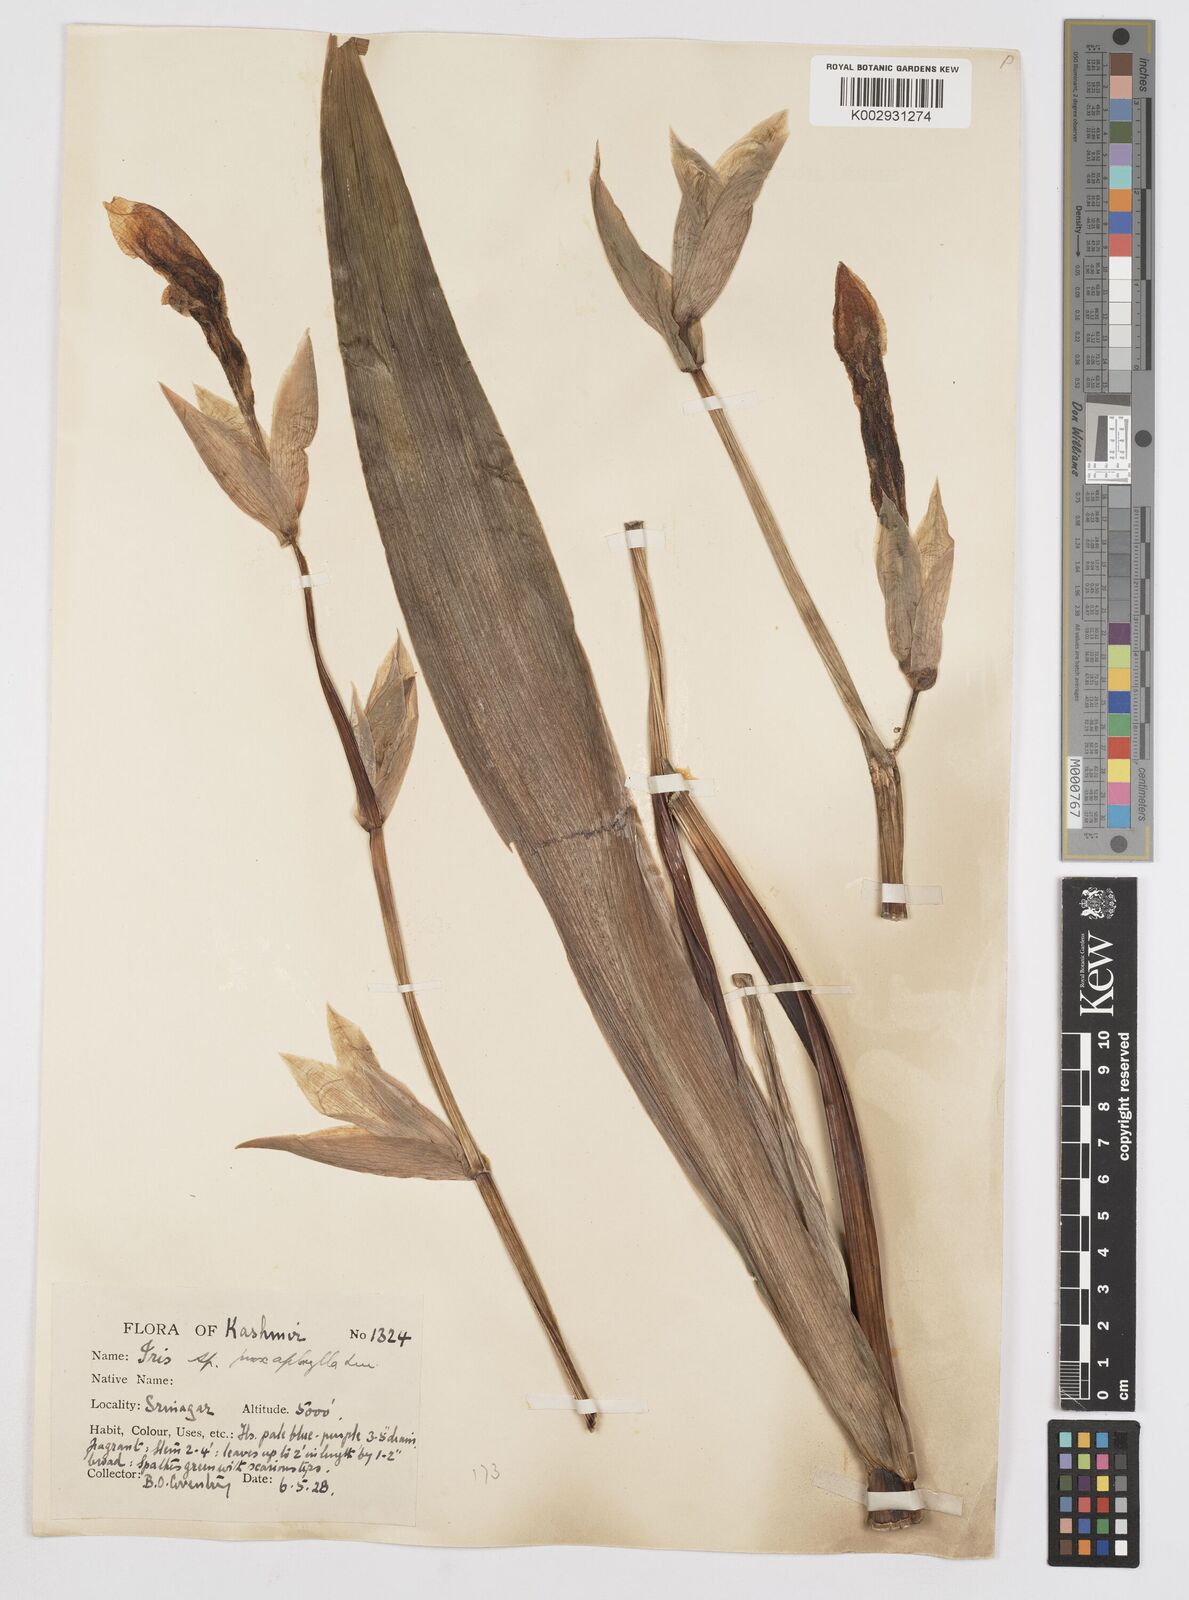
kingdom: Plantae
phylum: Tracheophyta
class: Liliopsida
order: Asparagales
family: Iridaceae
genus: Iris
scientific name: Iris kashmiriana
